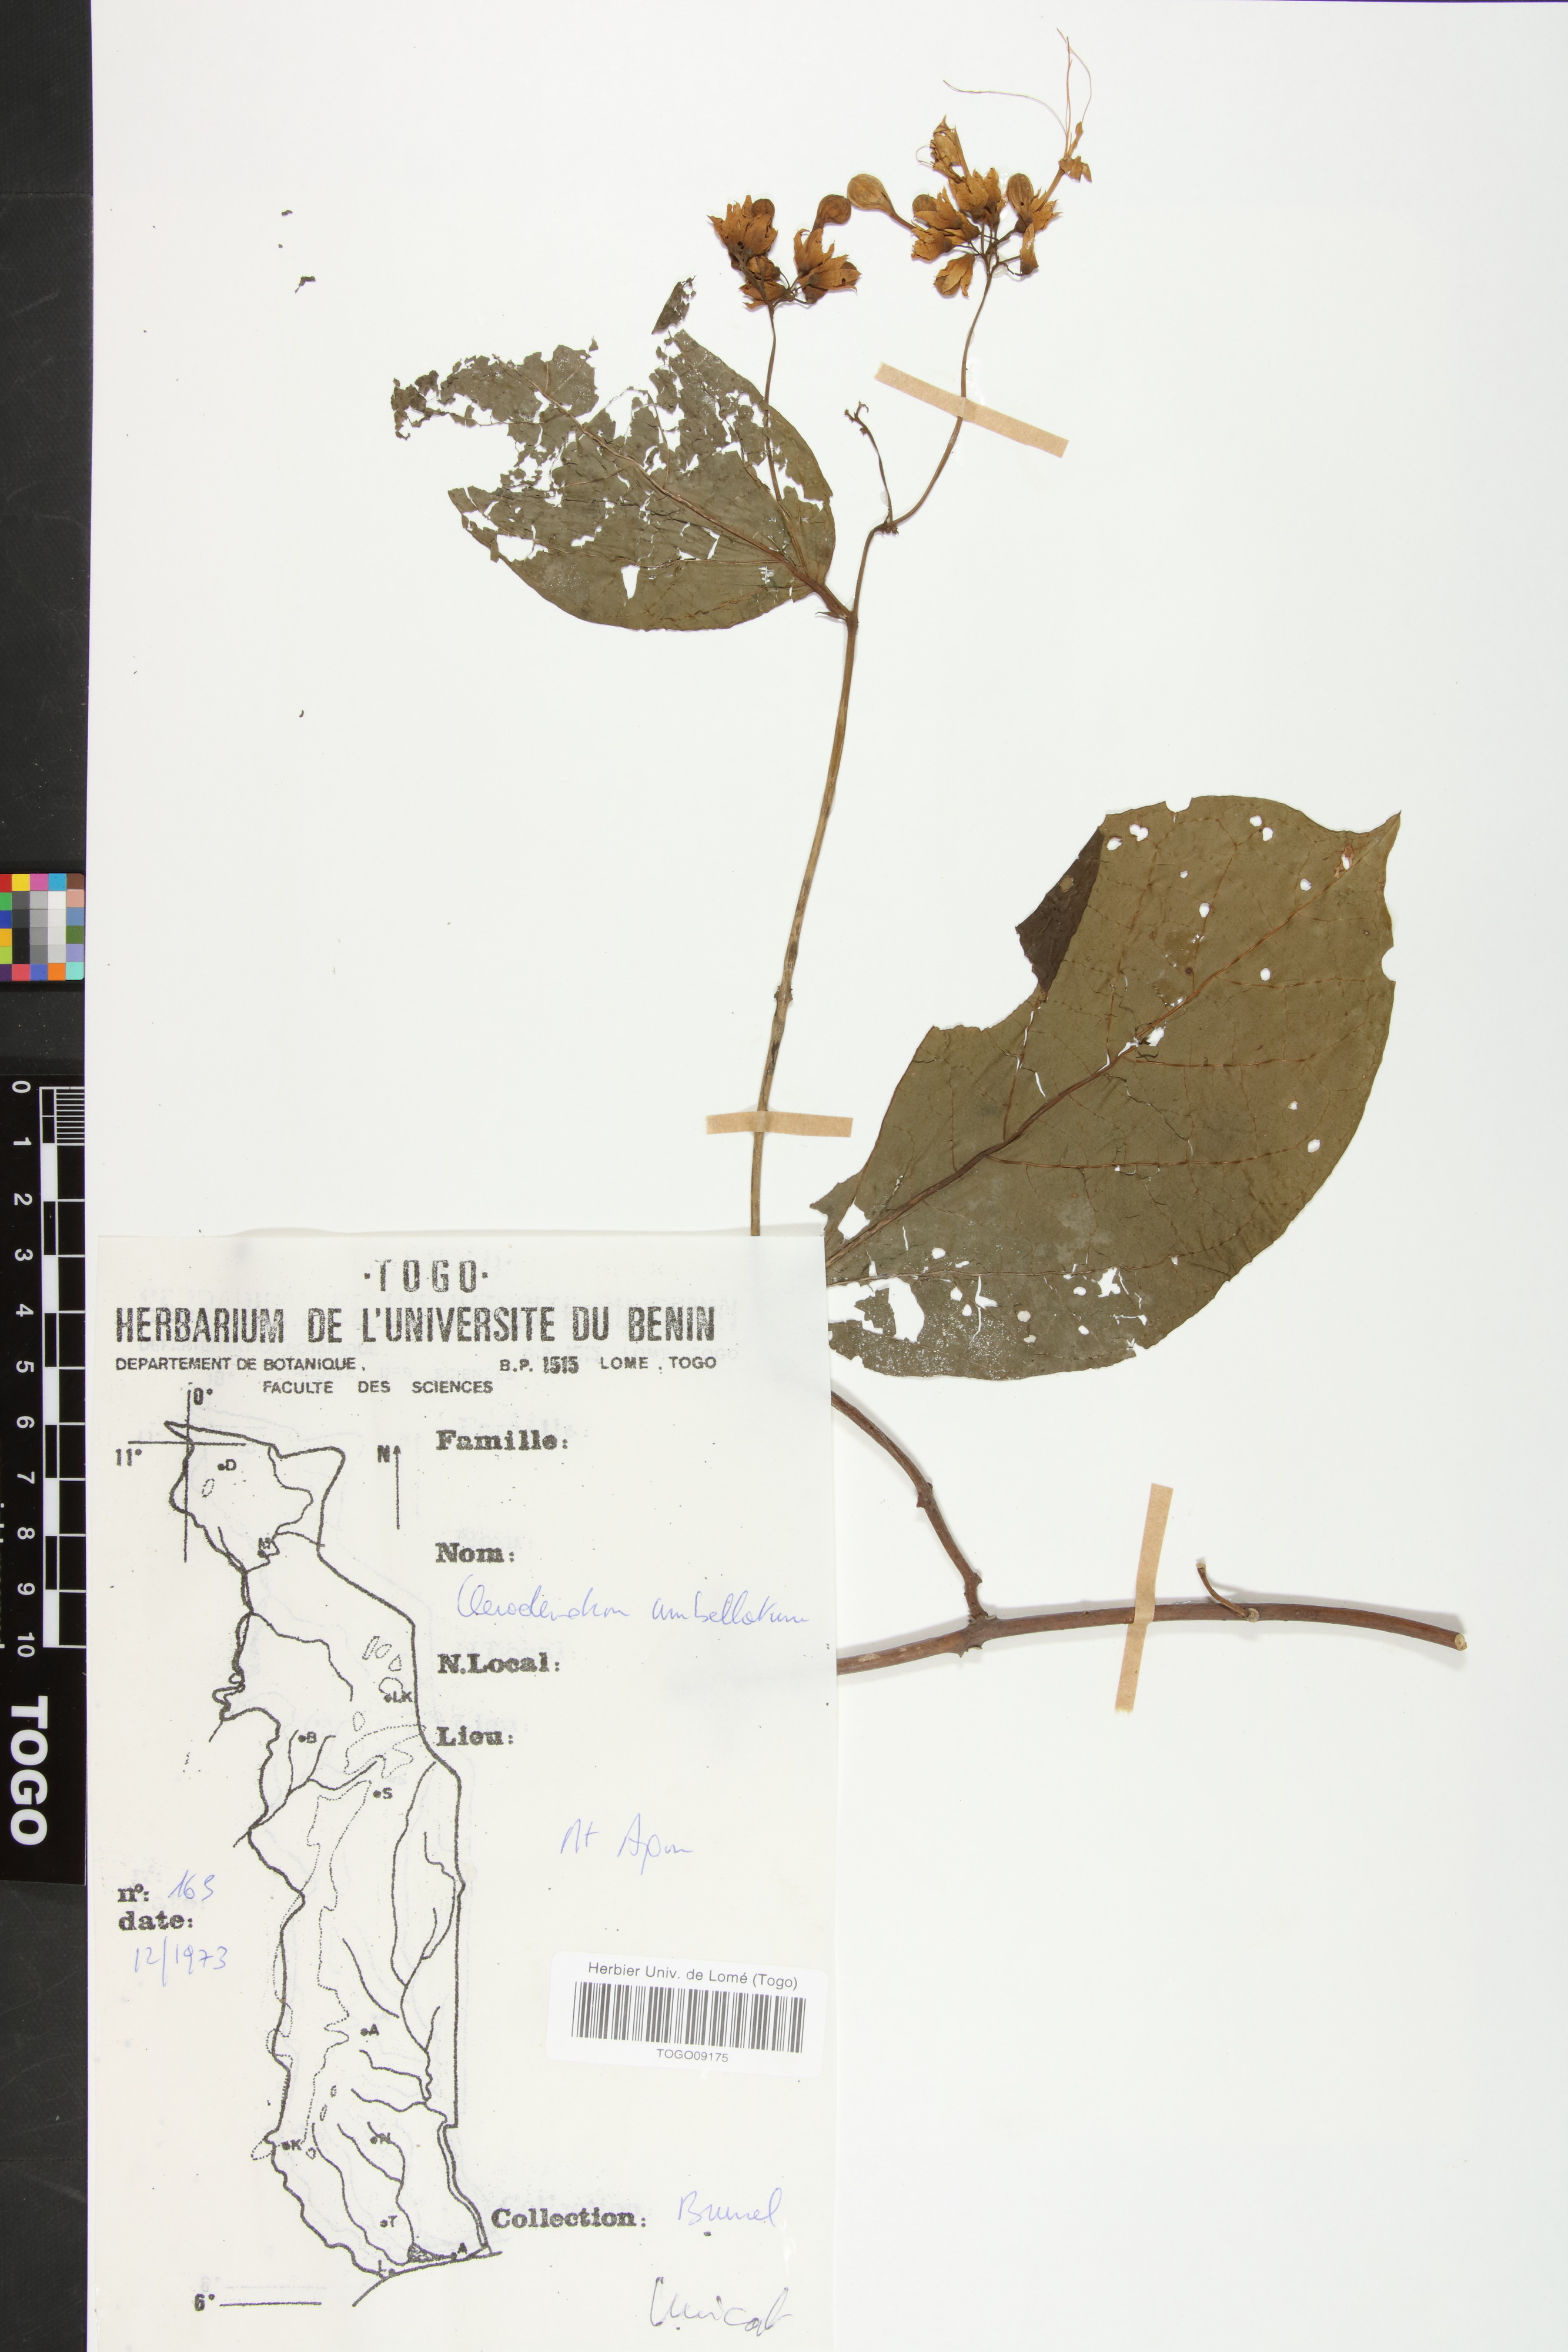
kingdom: Plantae
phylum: Tracheophyta
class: Magnoliopsida
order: Lamiales
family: Lamiaceae
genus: Clerodendrum
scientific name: Clerodendrum umbellatum
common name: Umbel clerodendrum
